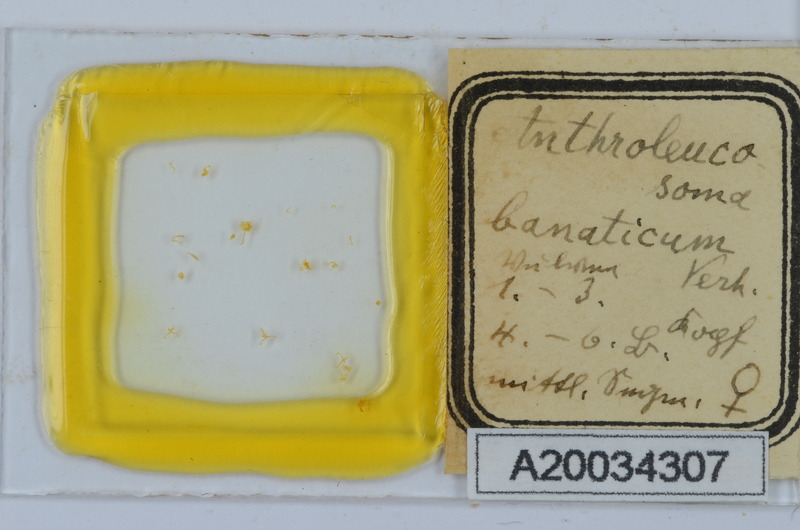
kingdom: Animalia
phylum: Arthropoda
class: Diplopoda
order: Chordeumatida
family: Anthroleucosomatidae
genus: Anthroleucosoma
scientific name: Anthroleucosoma banaticum
